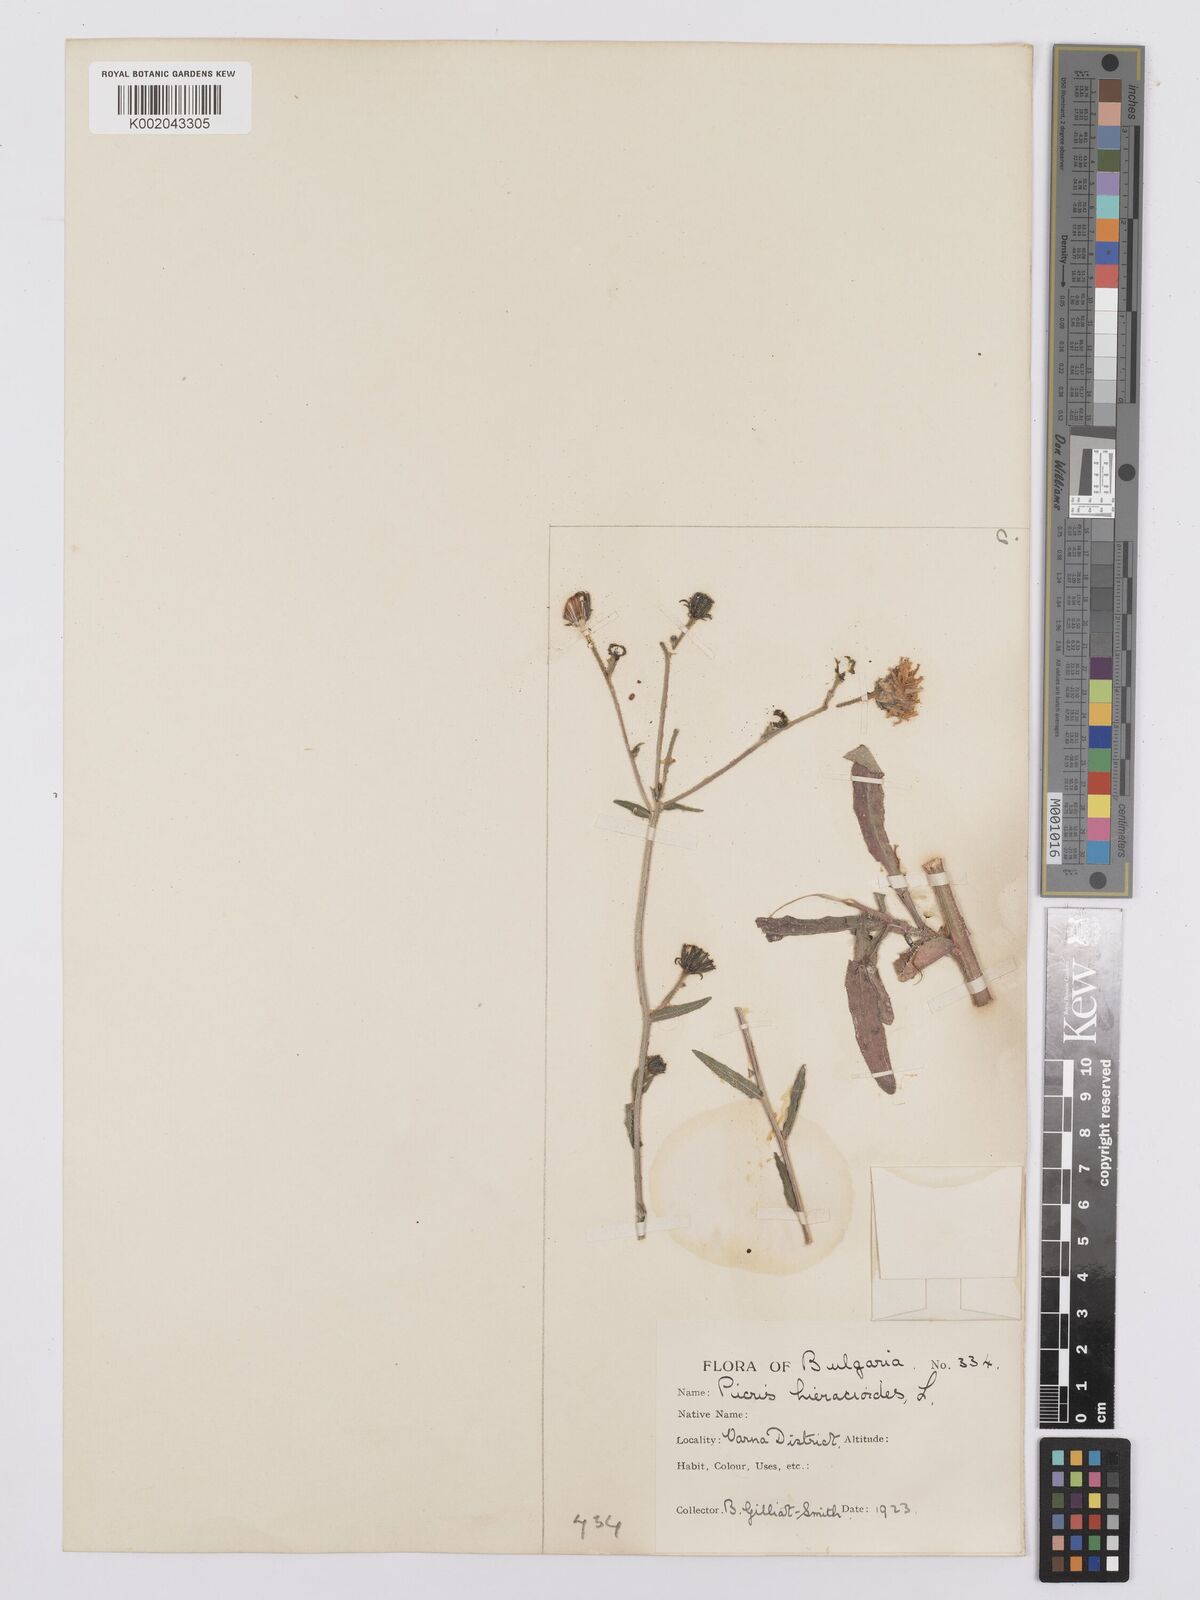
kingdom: Plantae
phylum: Tracheophyta
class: Magnoliopsida
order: Asterales
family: Asteraceae
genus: Picris
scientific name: Picris hieracioides
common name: Hawkweed oxtongue
